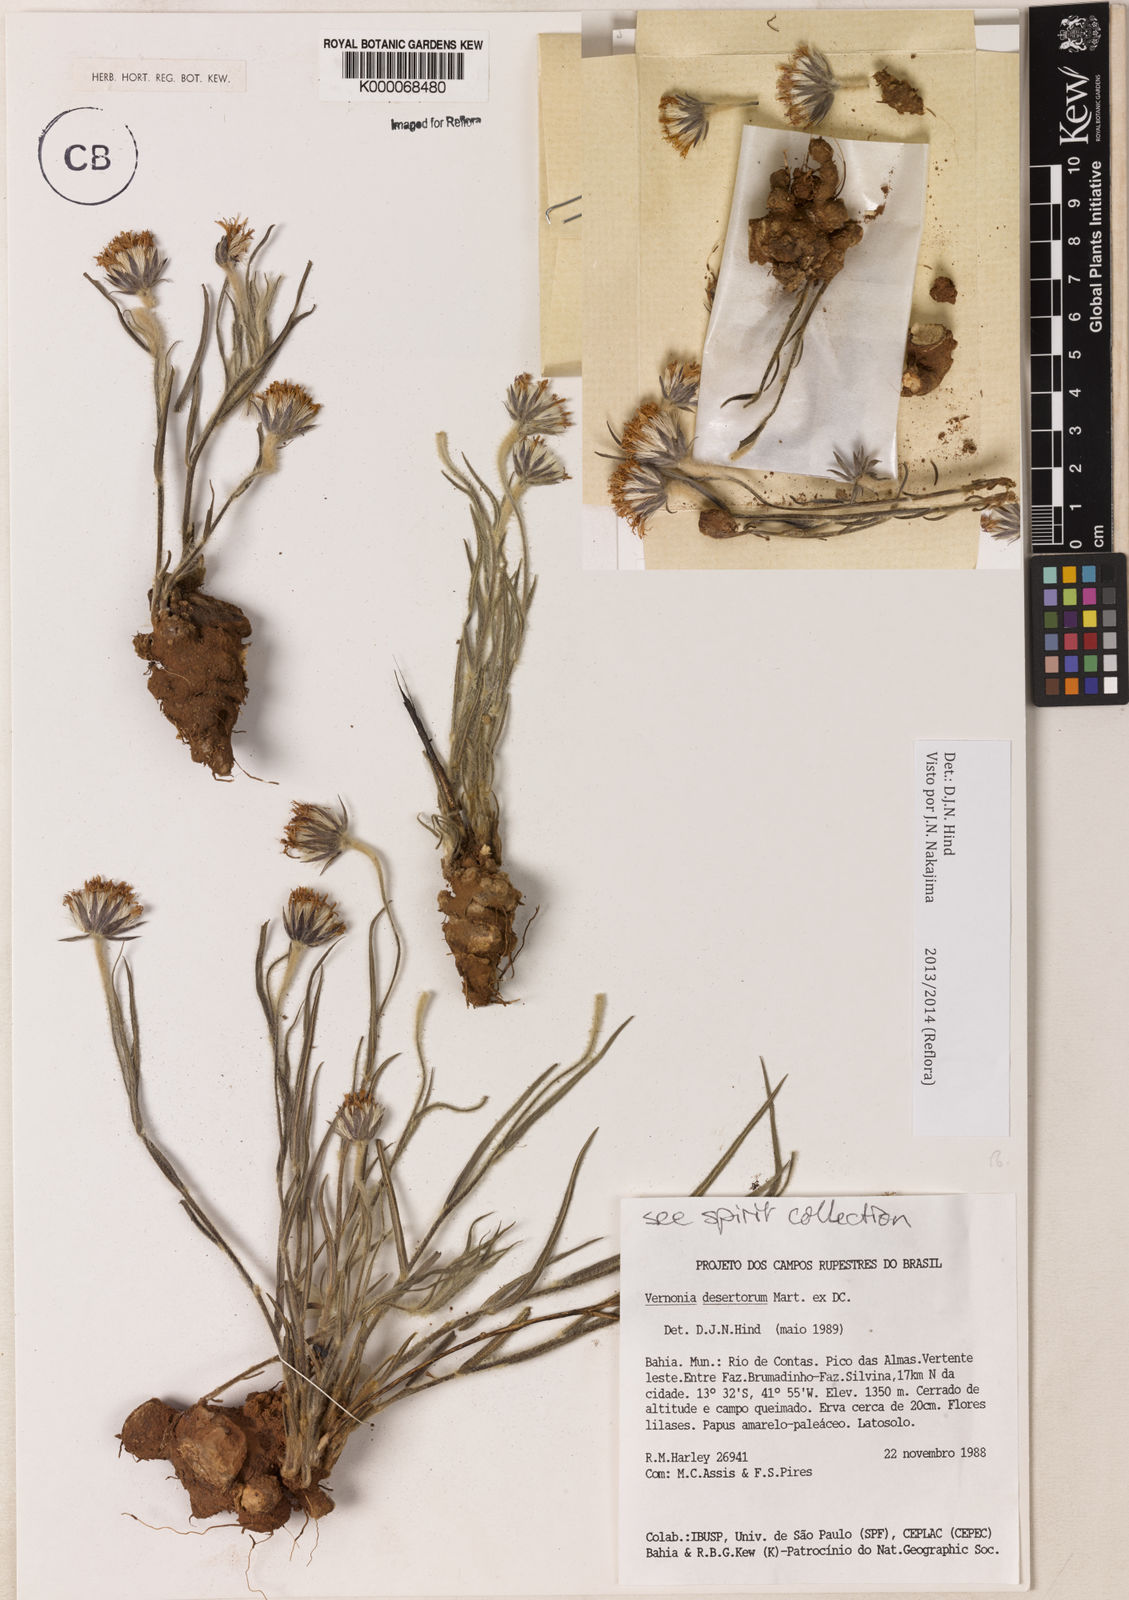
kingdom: Plantae
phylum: Tracheophyta
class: Magnoliopsida
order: Asterales
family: Asteraceae
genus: Chrysolaena
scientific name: Chrysolaena desertorum
